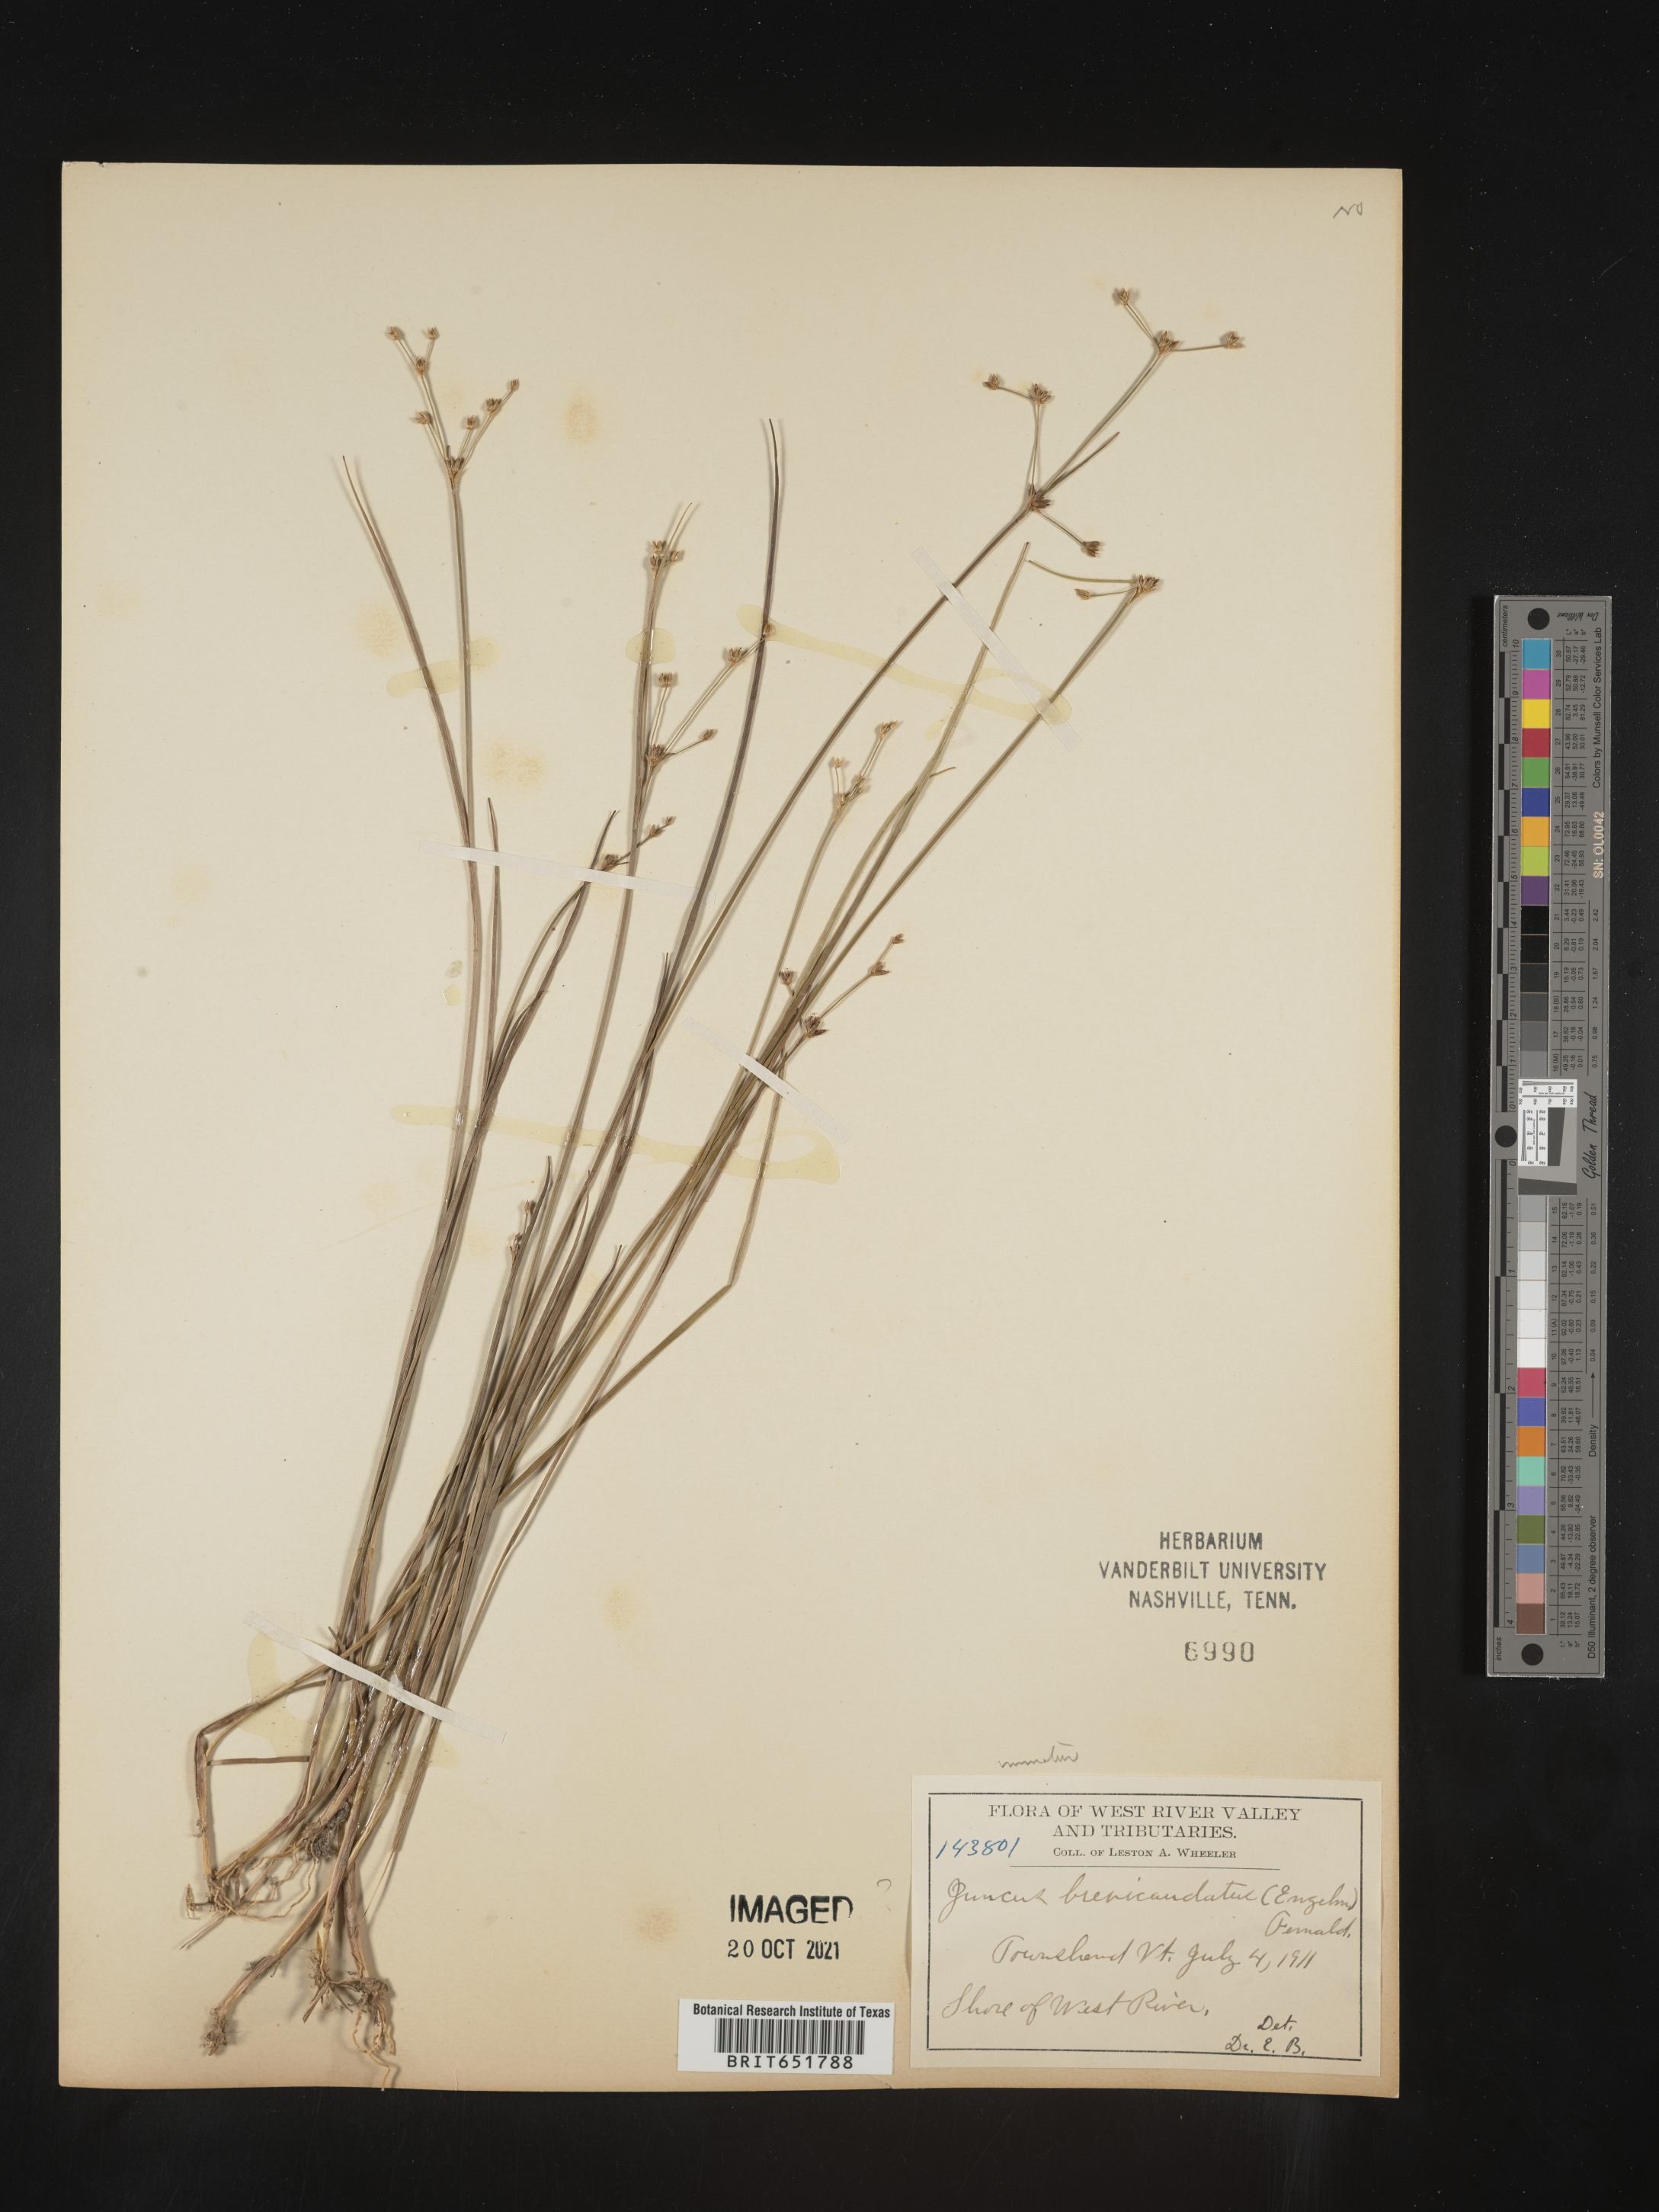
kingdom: Plantae
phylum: Tracheophyta
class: Liliopsida
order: Poales
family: Juncaceae
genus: Juncus
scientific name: Juncus brevicaudatus
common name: Narrow-panicle rush
